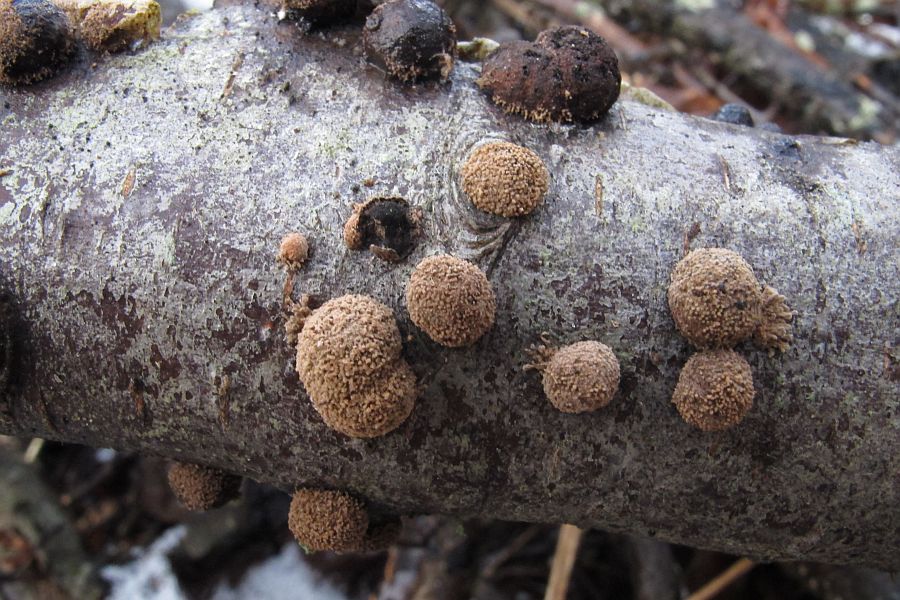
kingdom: Fungi
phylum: Ascomycota
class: Sordariomycetes
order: Xylariales
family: Hypoxylaceae
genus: Hypoxylon
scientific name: Hypoxylon howeanum
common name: halvkugleformet kulbær
